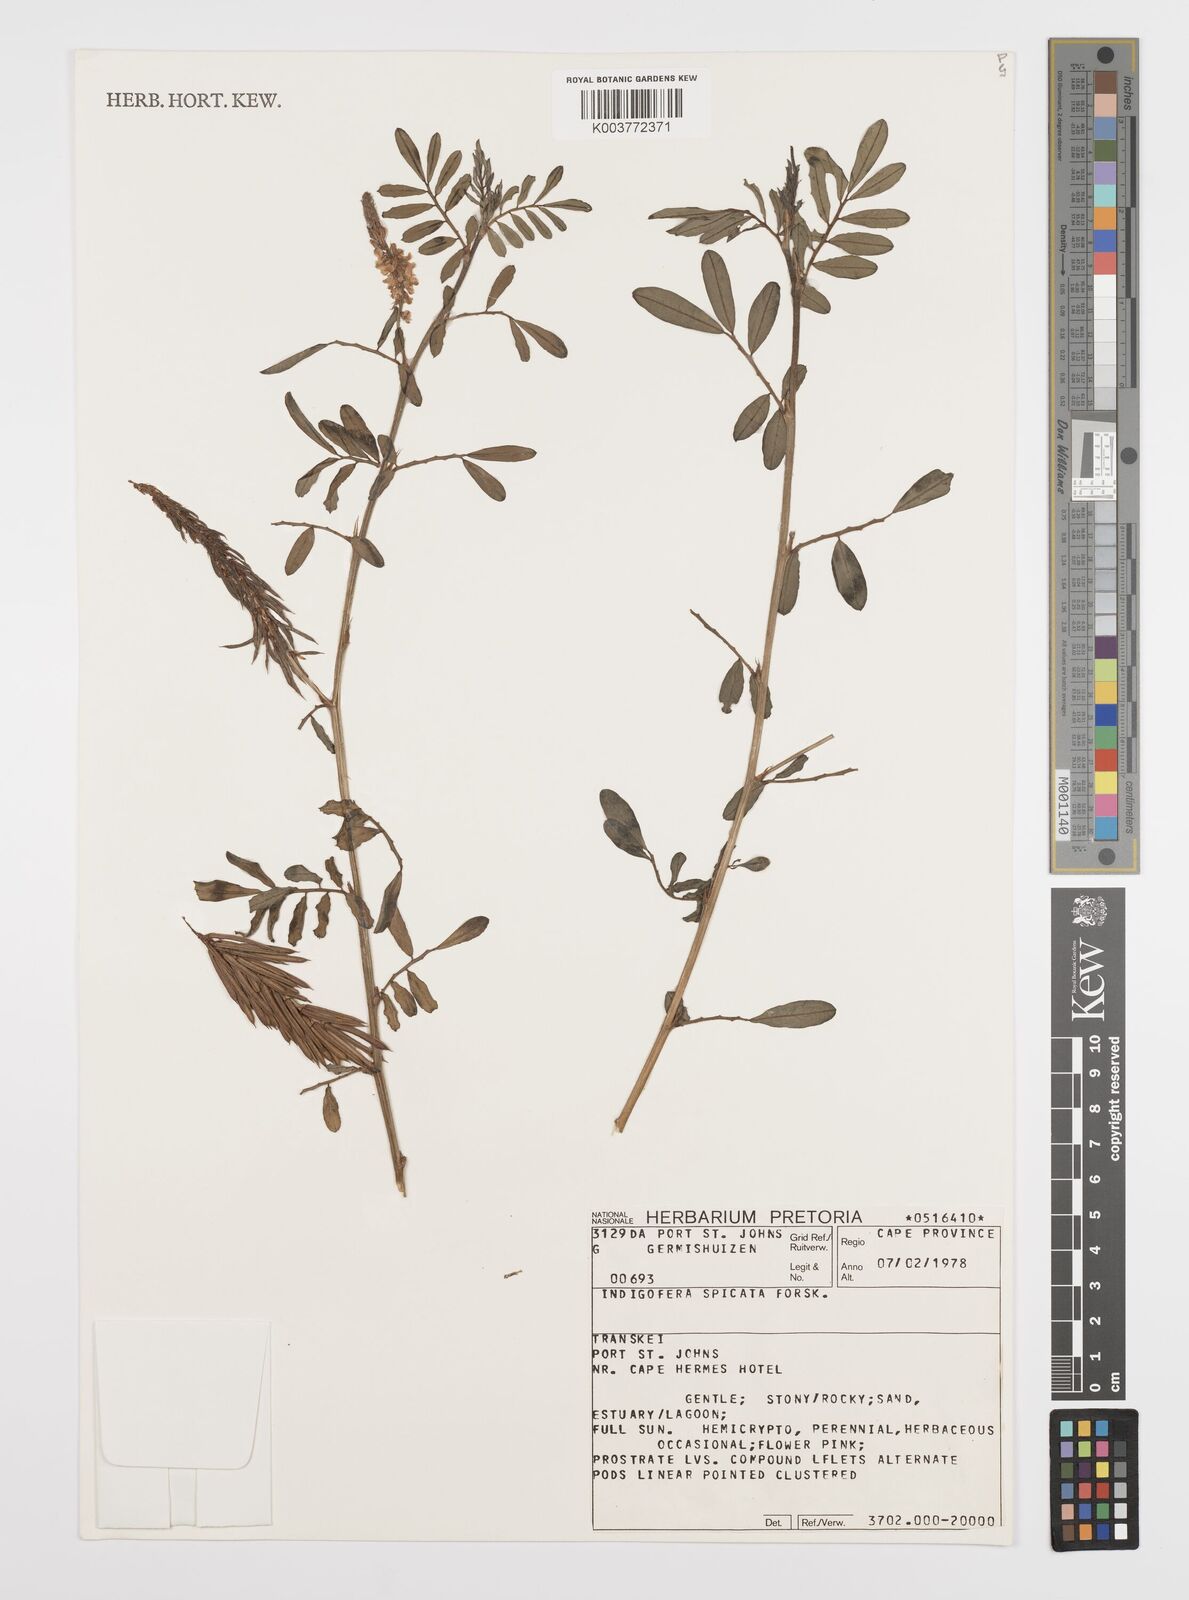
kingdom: Plantae
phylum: Tracheophyta
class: Magnoliopsida
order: Fabales
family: Fabaceae
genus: Indigofera
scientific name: Indigofera hendecaphylla
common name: Trailing indigo
